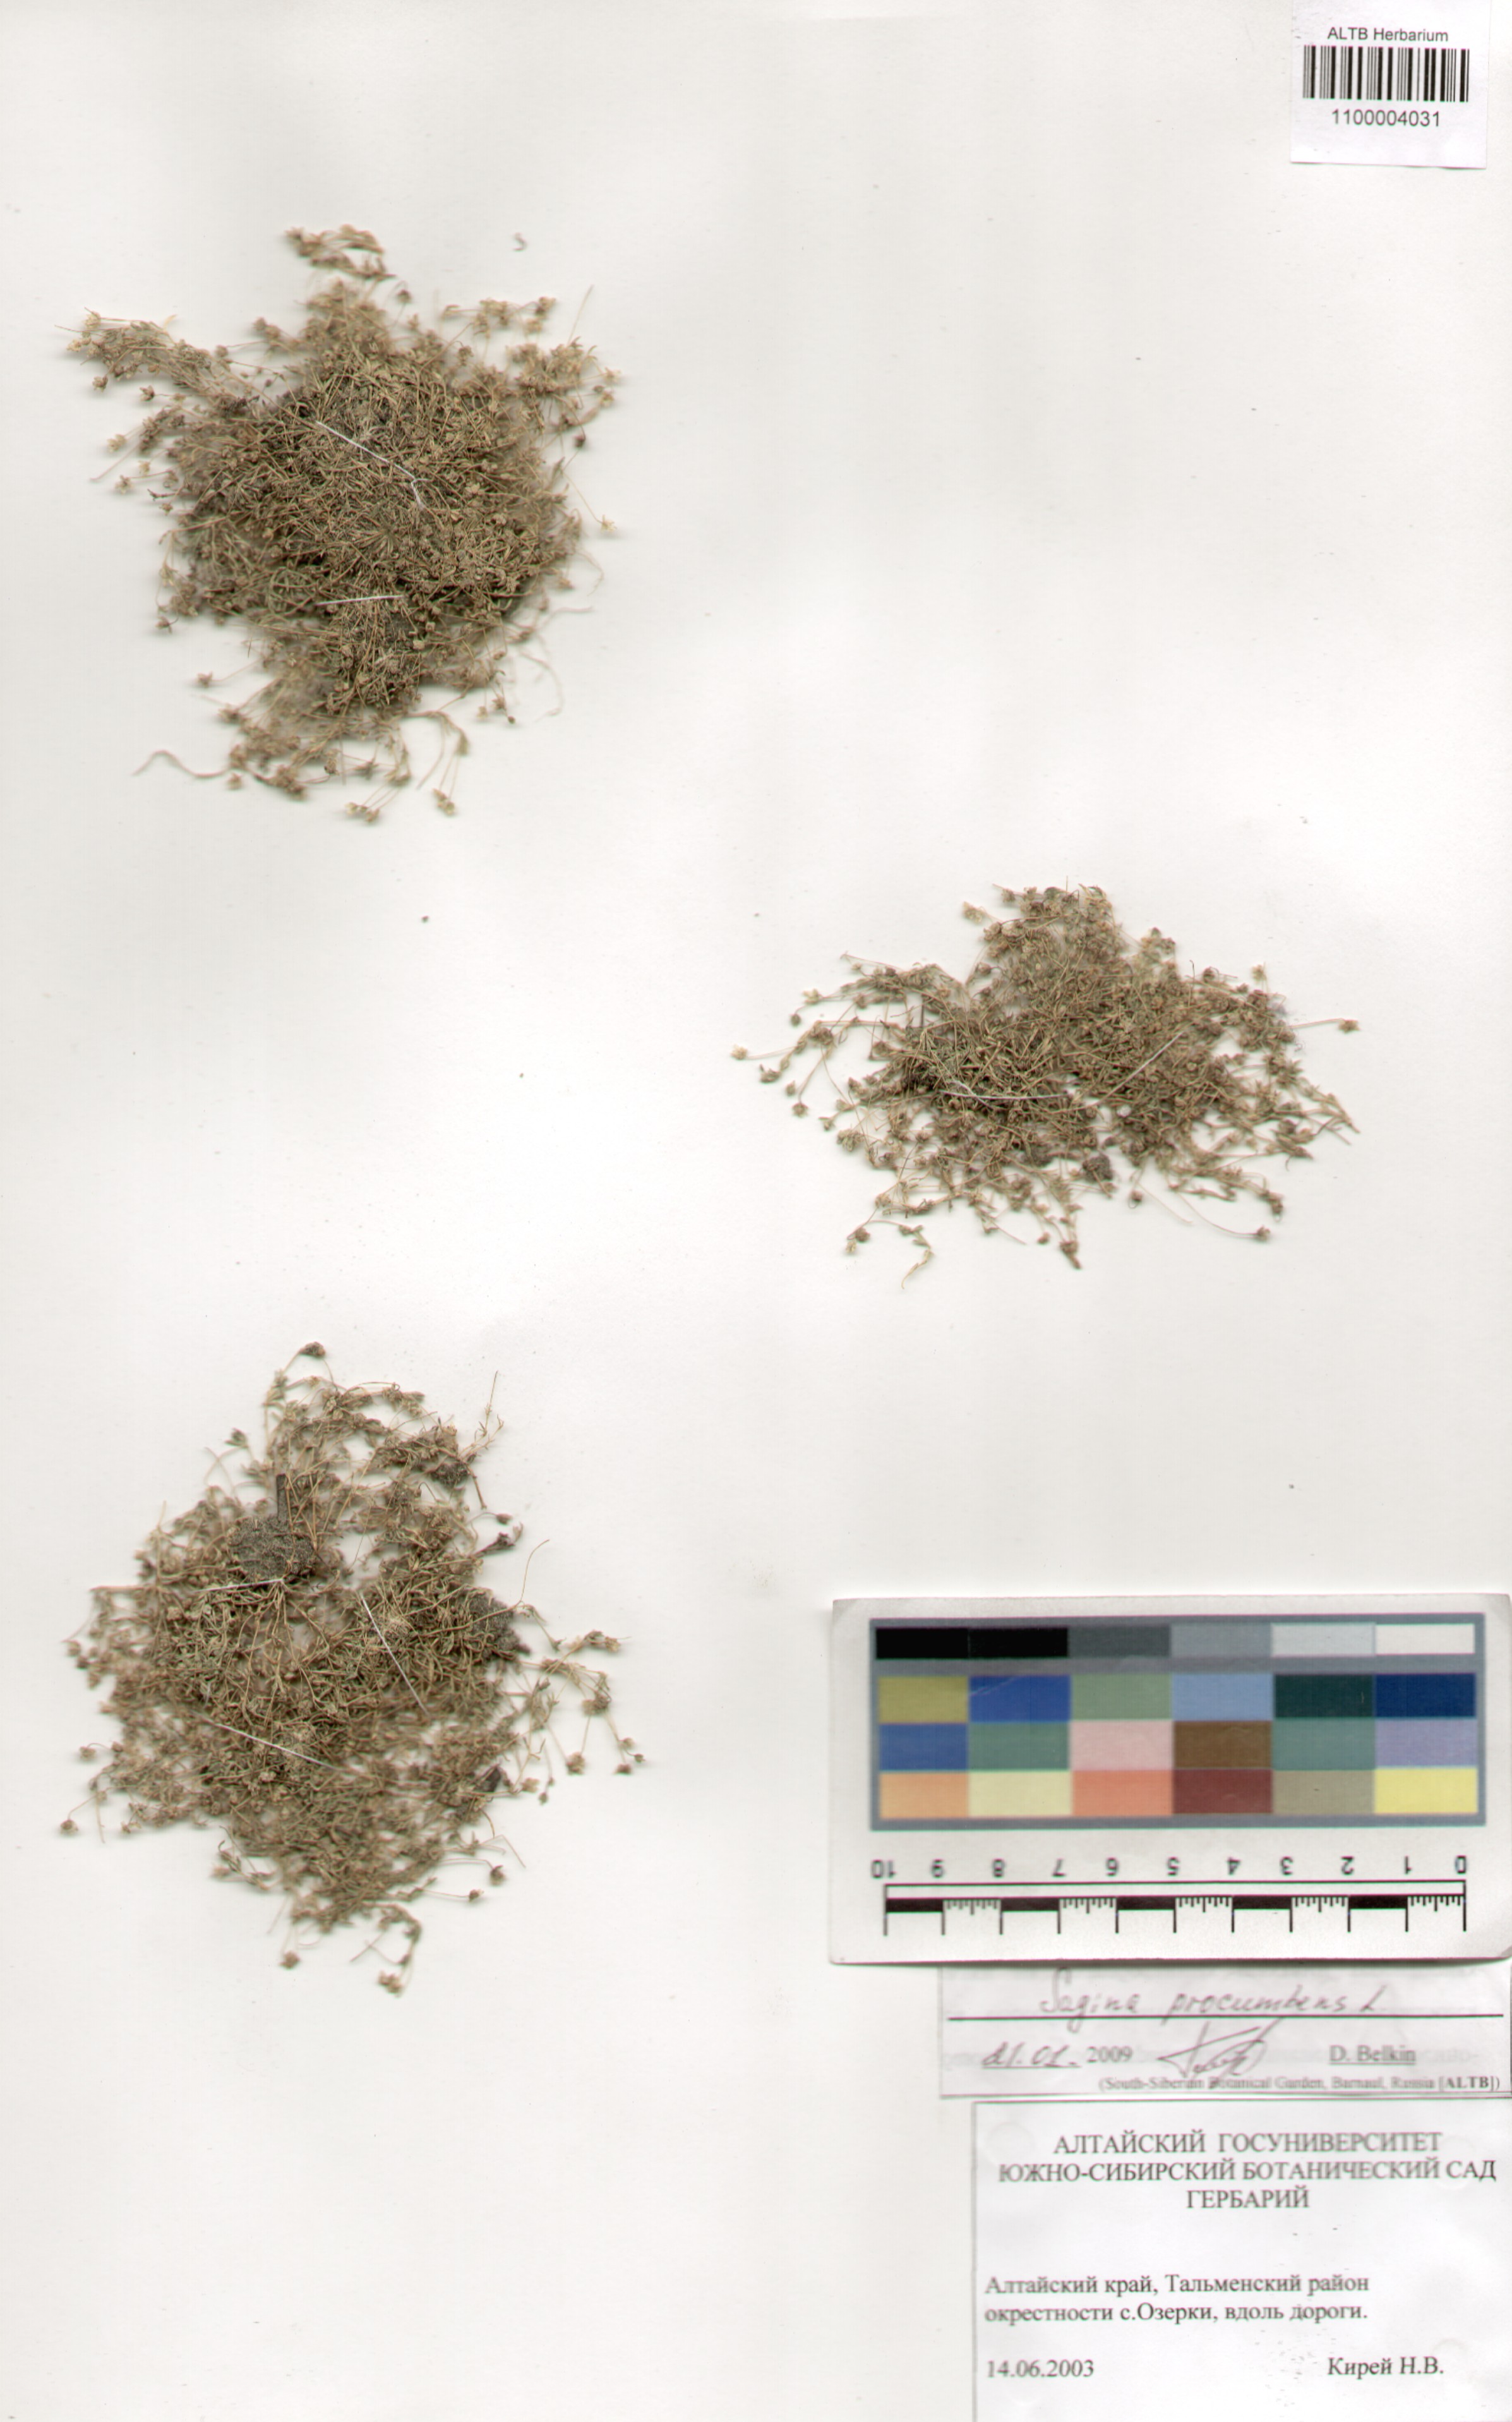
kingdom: Plantae
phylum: Tracheophyta
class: Magnoliopsida
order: Caryophyllales
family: Caryophyllaceae
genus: Sagina
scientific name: Sagina procumbens
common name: Procumbent pearlwort
